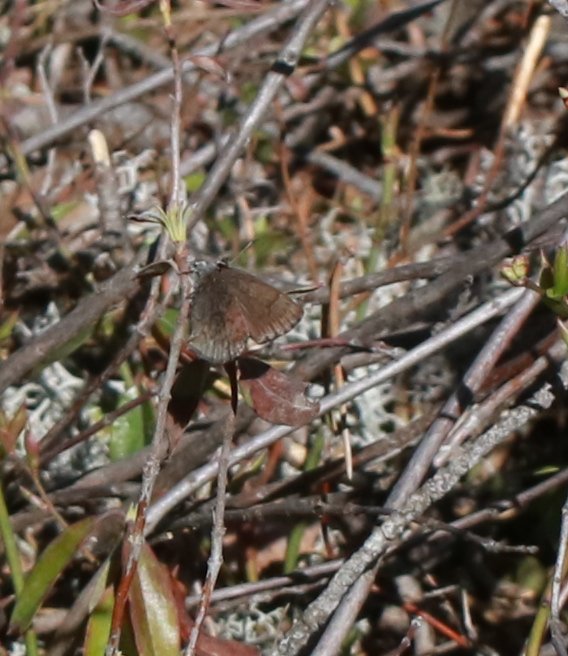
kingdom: Animalia
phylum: Arthropoda
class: Insecta
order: Lepidoptera
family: Lycaenidae
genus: Callophrys
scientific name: Callophrys polios
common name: Hoary Elfin
